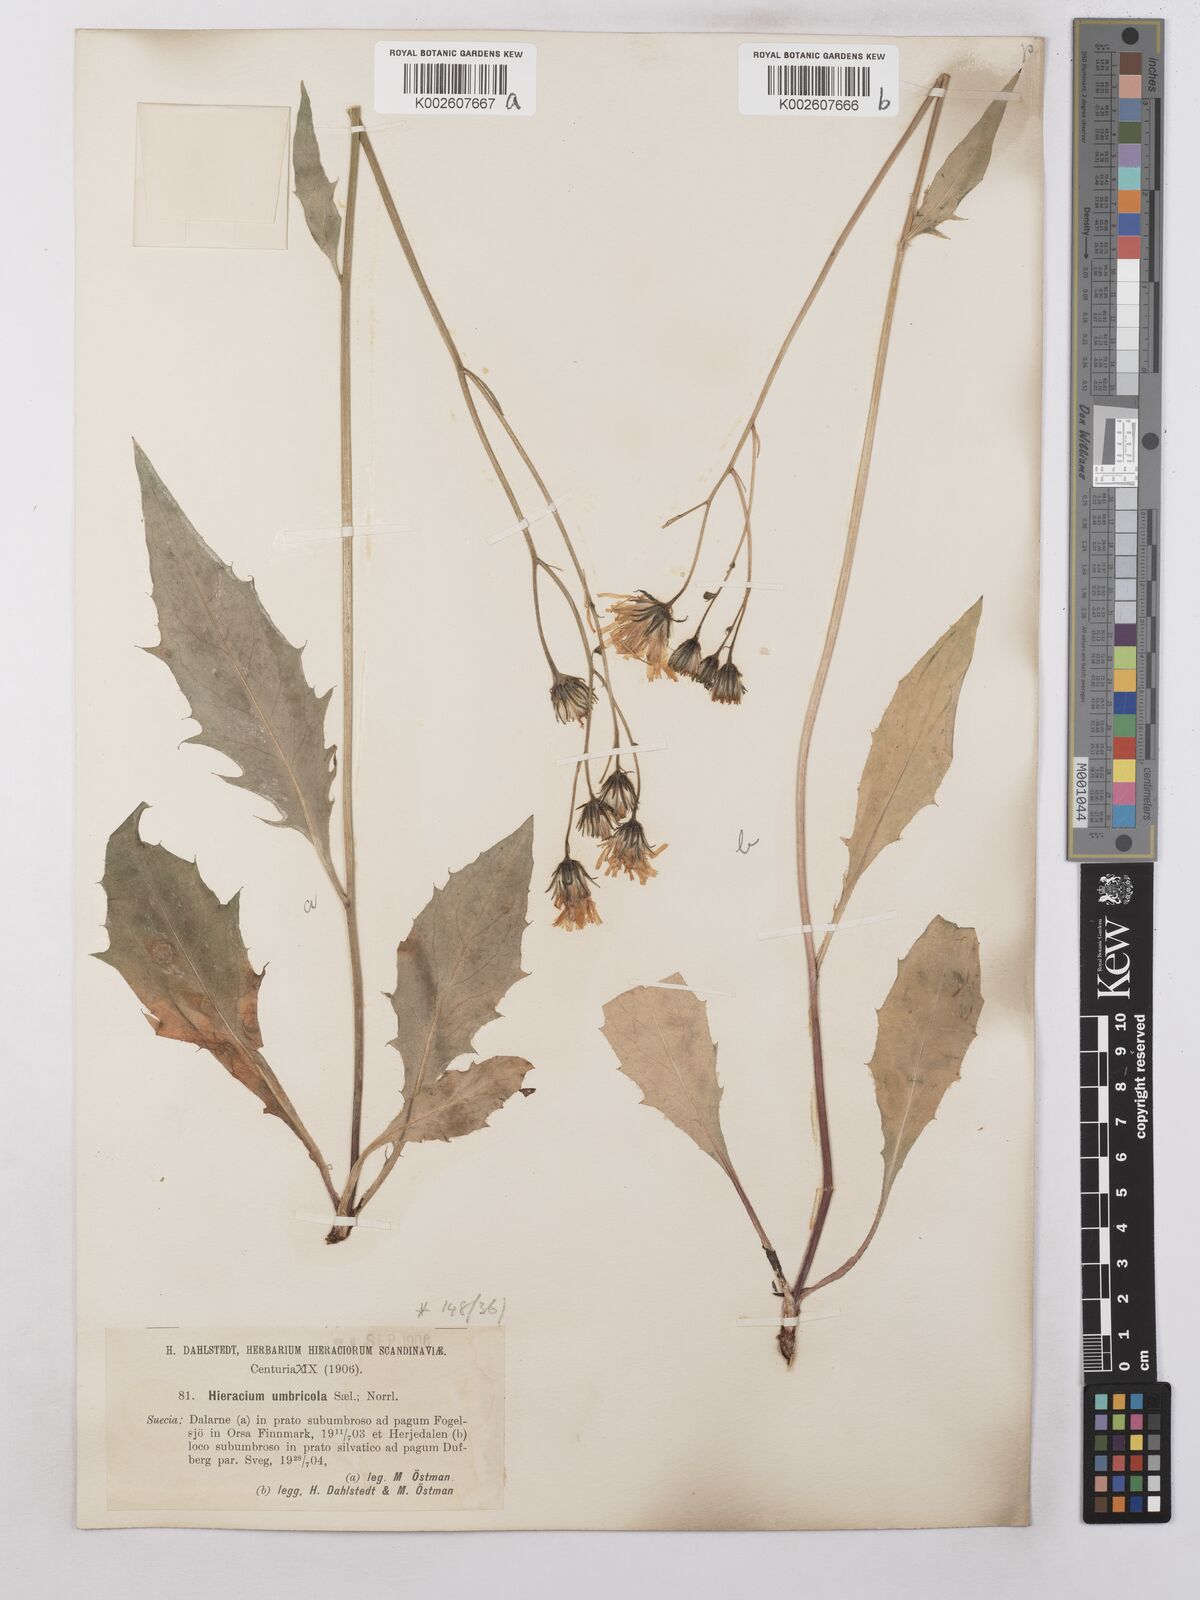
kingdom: Plantae
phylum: Tracheophyta
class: Magnoliopsida
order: Asterales
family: Asteraceae
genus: Hieracium
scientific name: Hieracium subramosum
